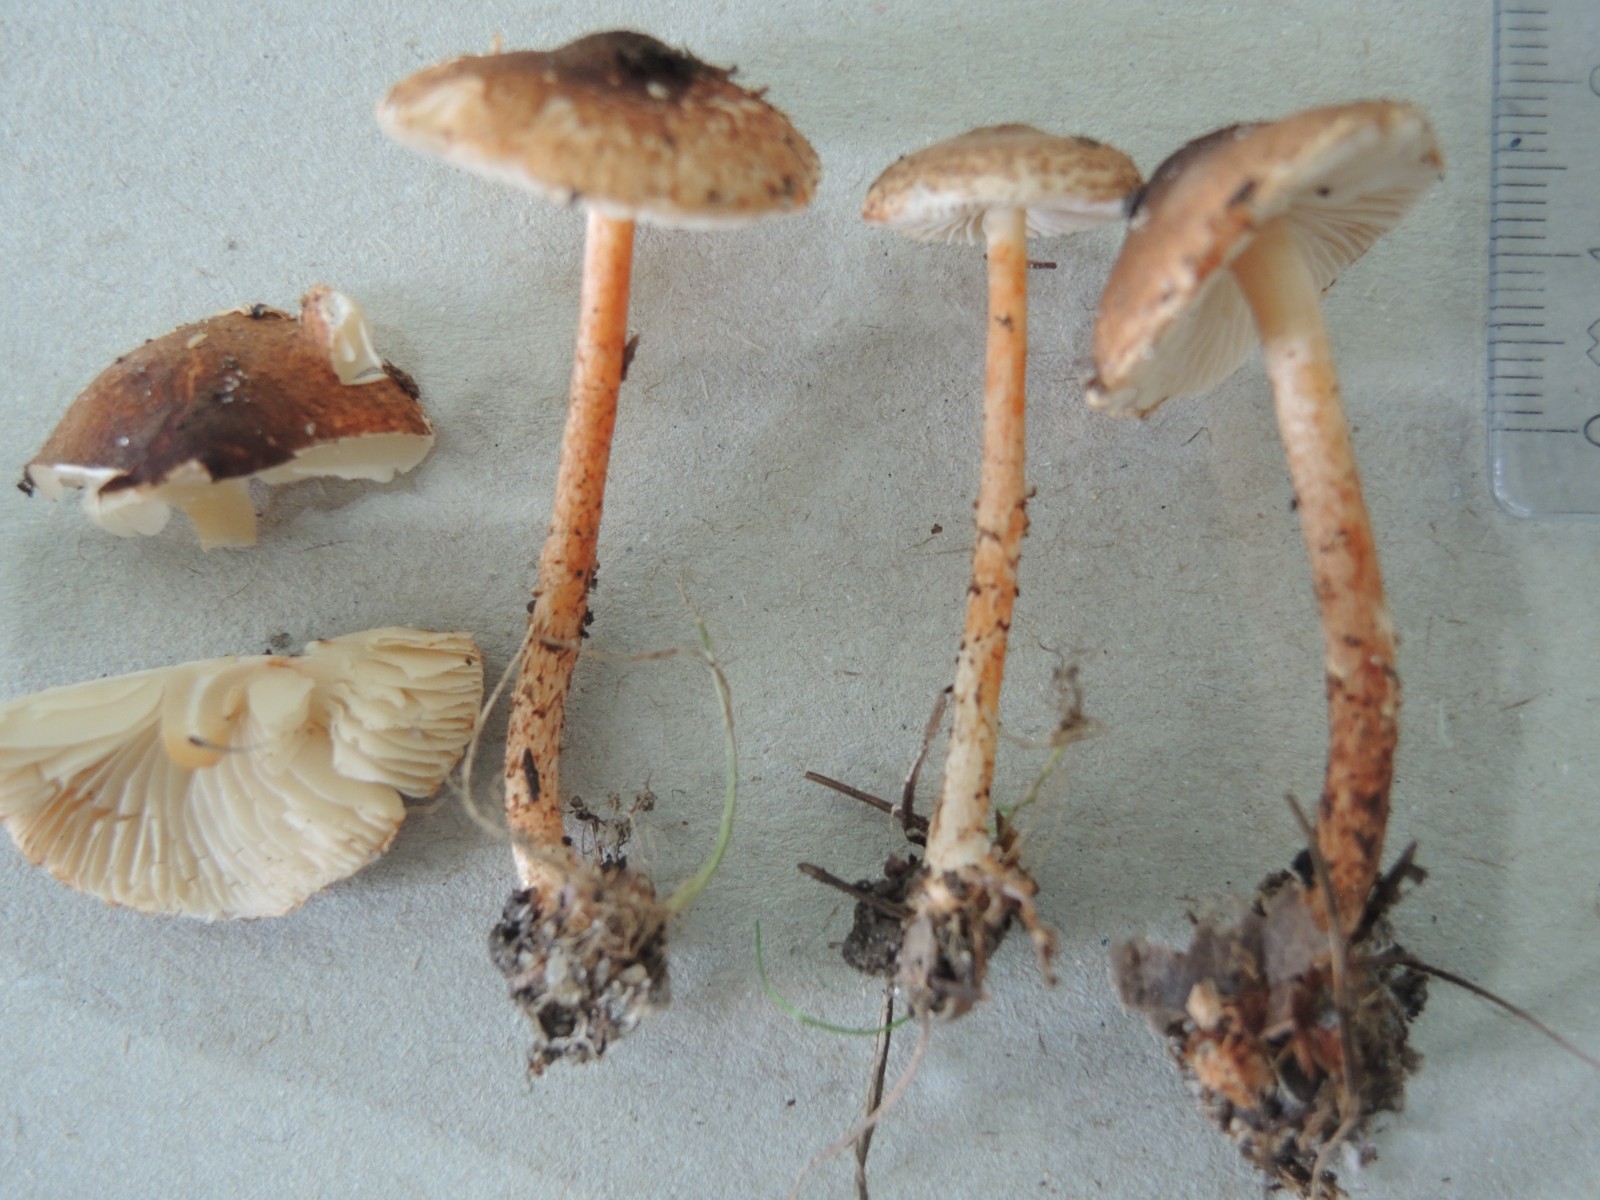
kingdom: Fungi
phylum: Basidiomycota
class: Agaricomycetes
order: Agaricales
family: Agaricaceae
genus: Lepiota
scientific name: Lepiota castanea
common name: kastaniebrun parasolhat
